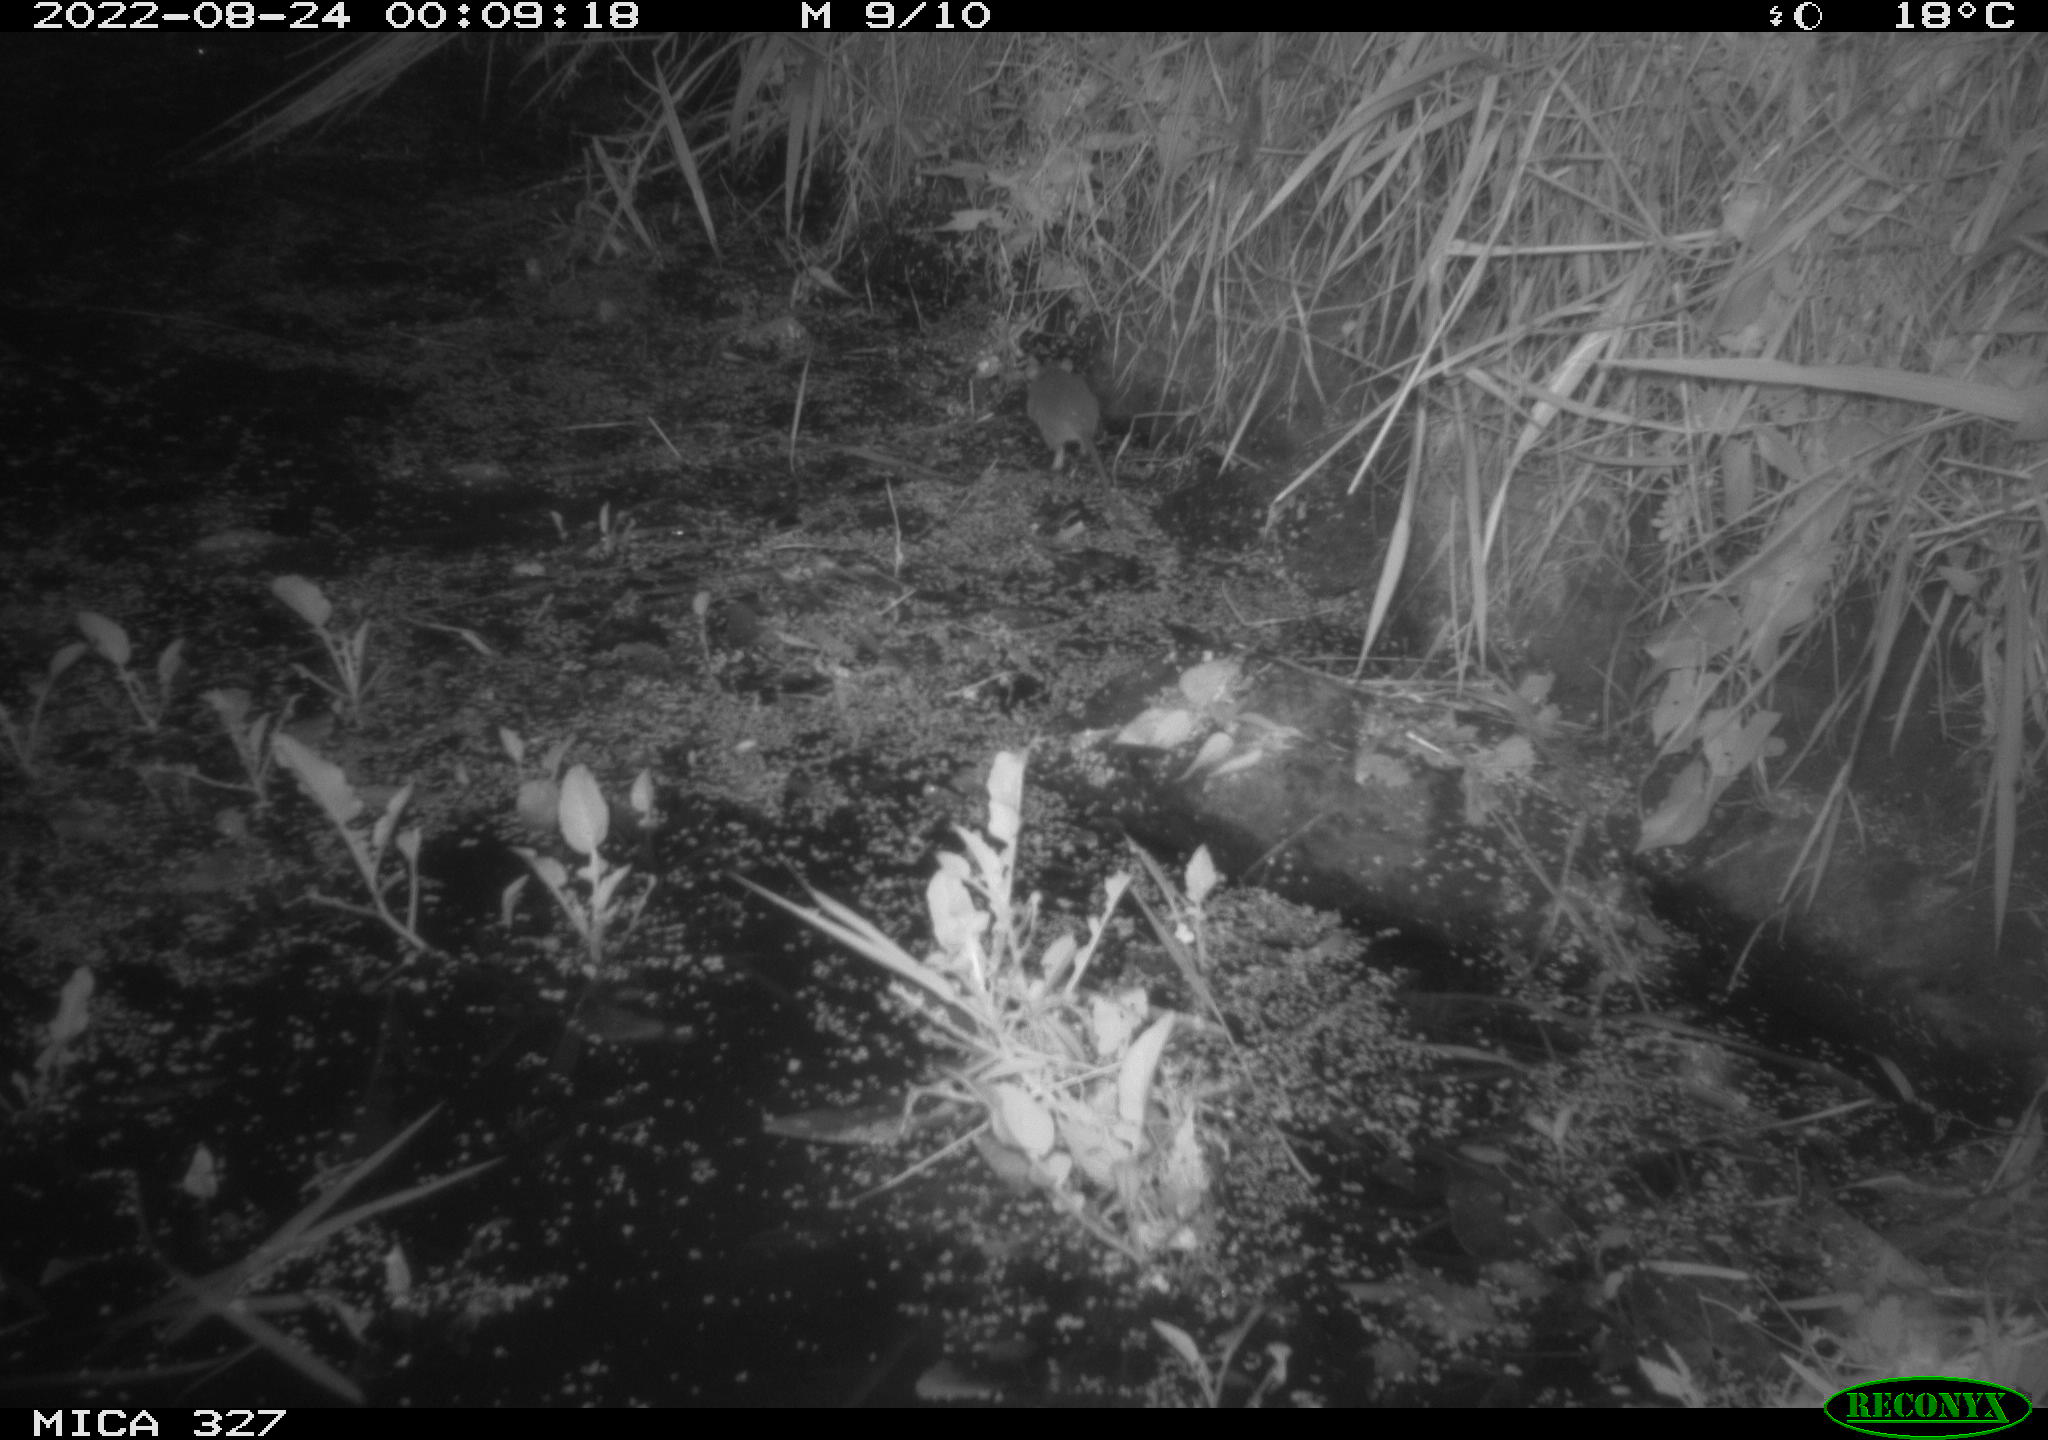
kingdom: Animalia
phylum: Chordata
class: Mammalia
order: Rodentia
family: Muridae
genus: Rattus
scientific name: Rattus norvegicus
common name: Brown rat
